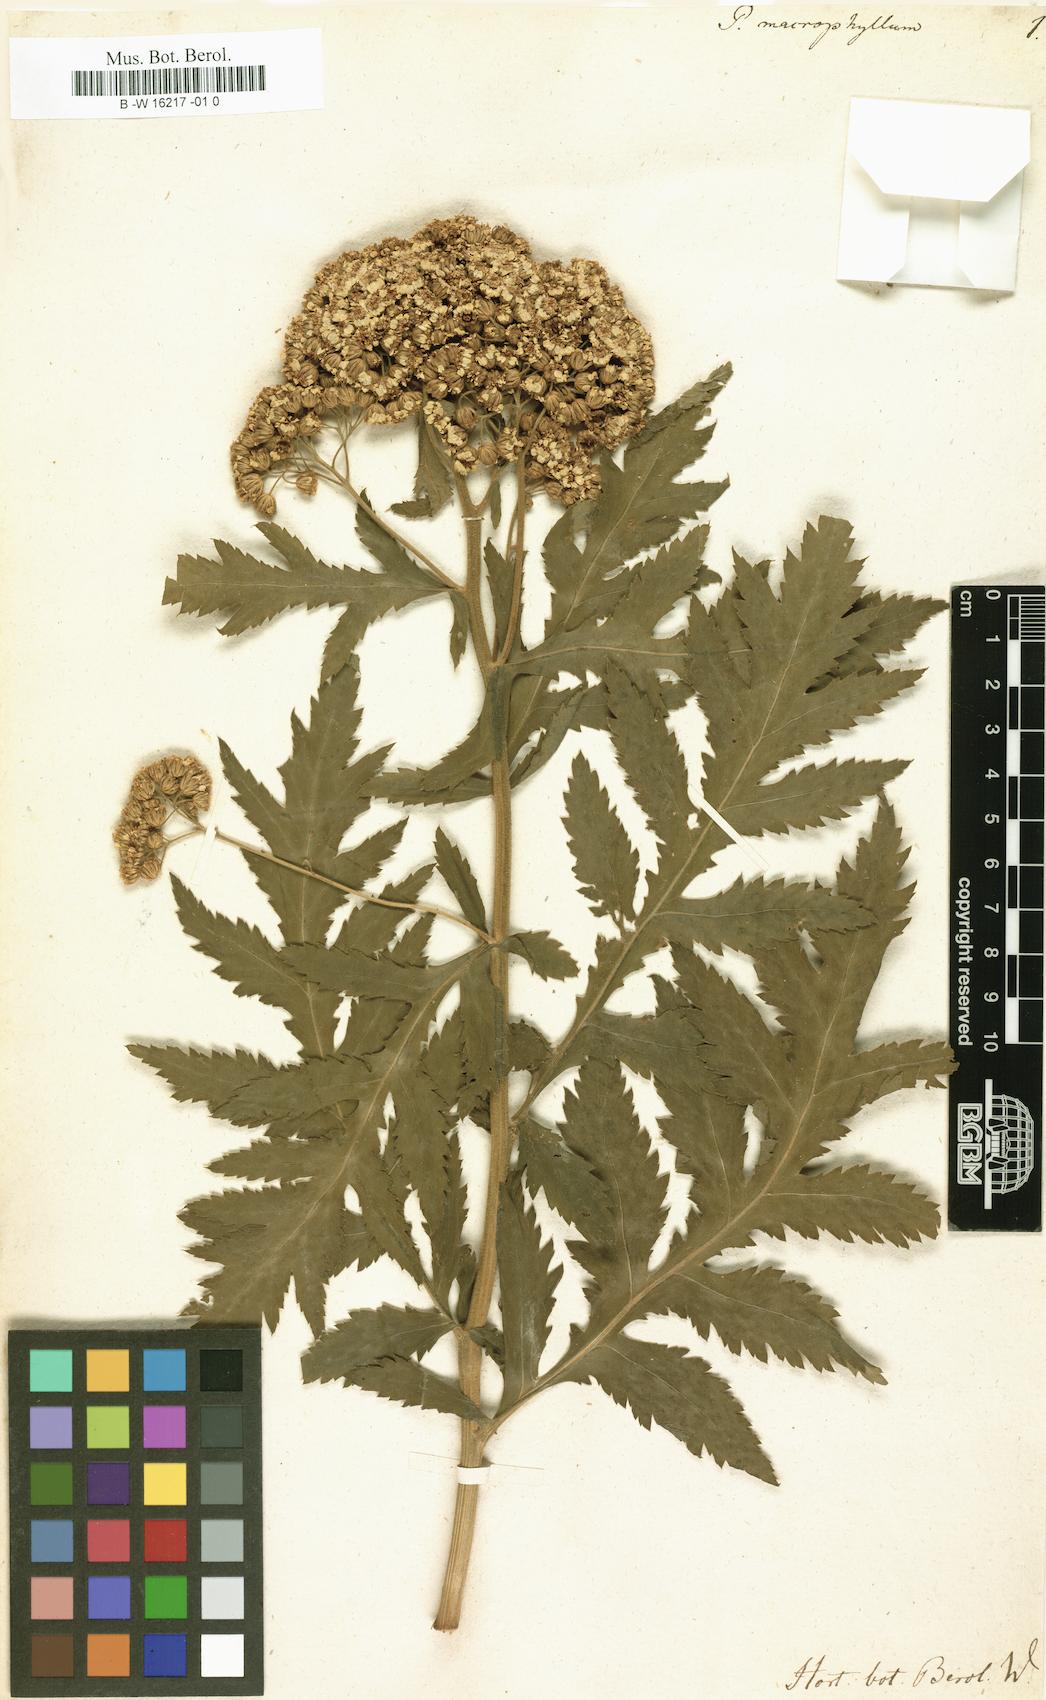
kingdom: Plantae
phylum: Tracheophyta
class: Magnoliopsida
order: Asterales
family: Asteraceae
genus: Tanacetum
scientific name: Tanacetum macrophyllum
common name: Rayed tansy
